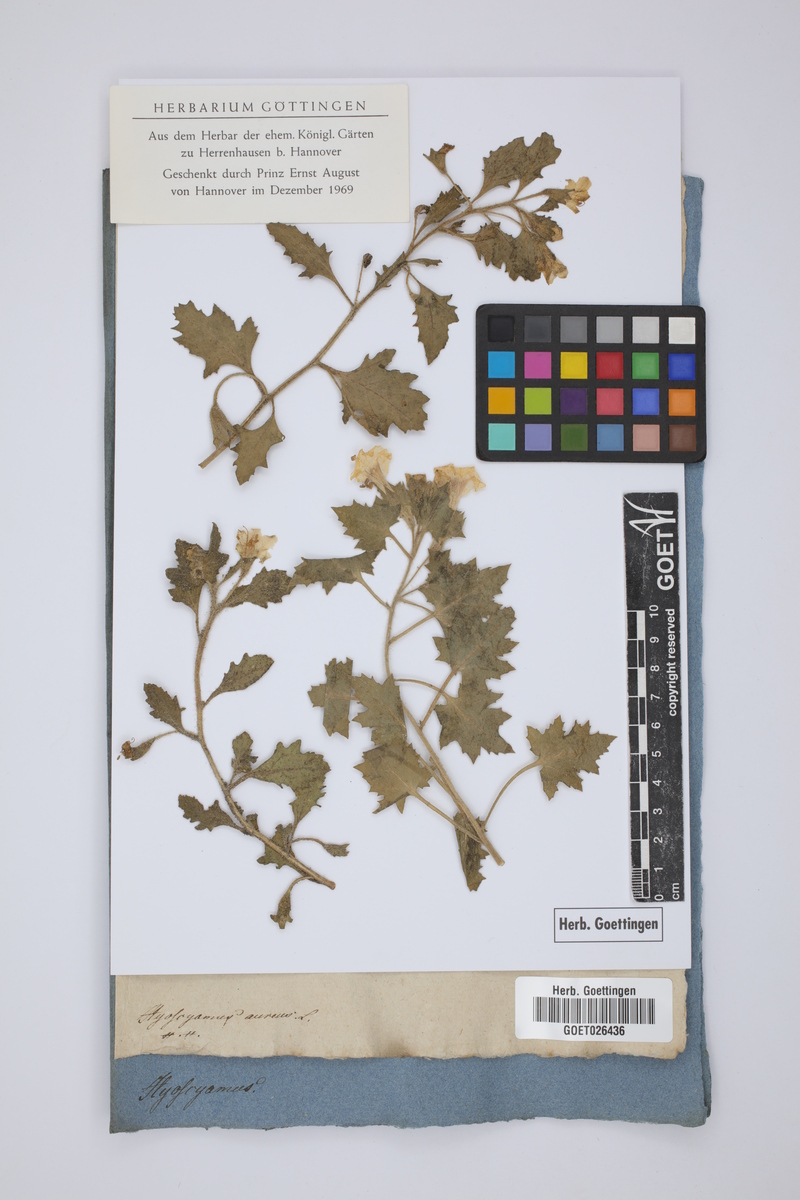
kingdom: Plantae
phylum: Tracheophyta
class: Magnoliopsida
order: Solanales
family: Solanaceae
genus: Hyoscyamus
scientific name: Hyoscyamus aureus
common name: Golden henbane
